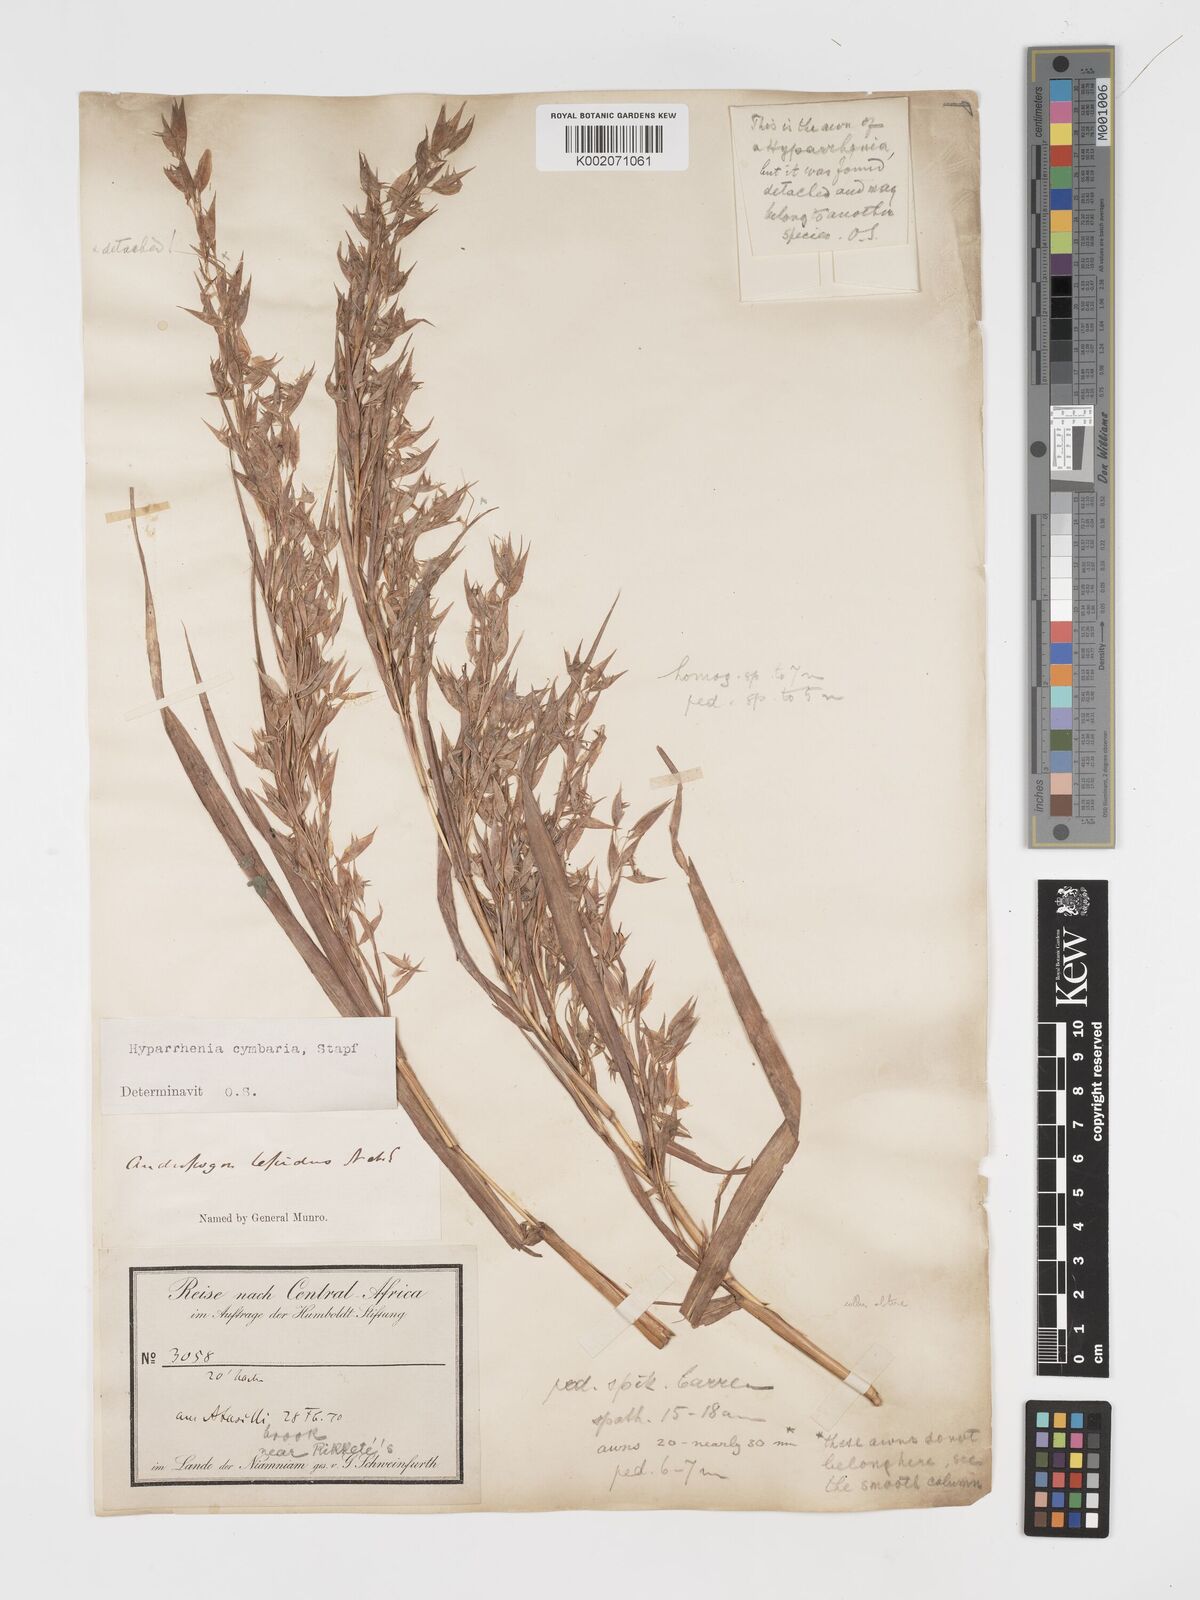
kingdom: Plantae
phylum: Tracheophyta
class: Liliopsida
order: Poales
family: Poaceae
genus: Hyparrhenia
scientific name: Hyparrhenia cymbaria
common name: Boat thatching grass
